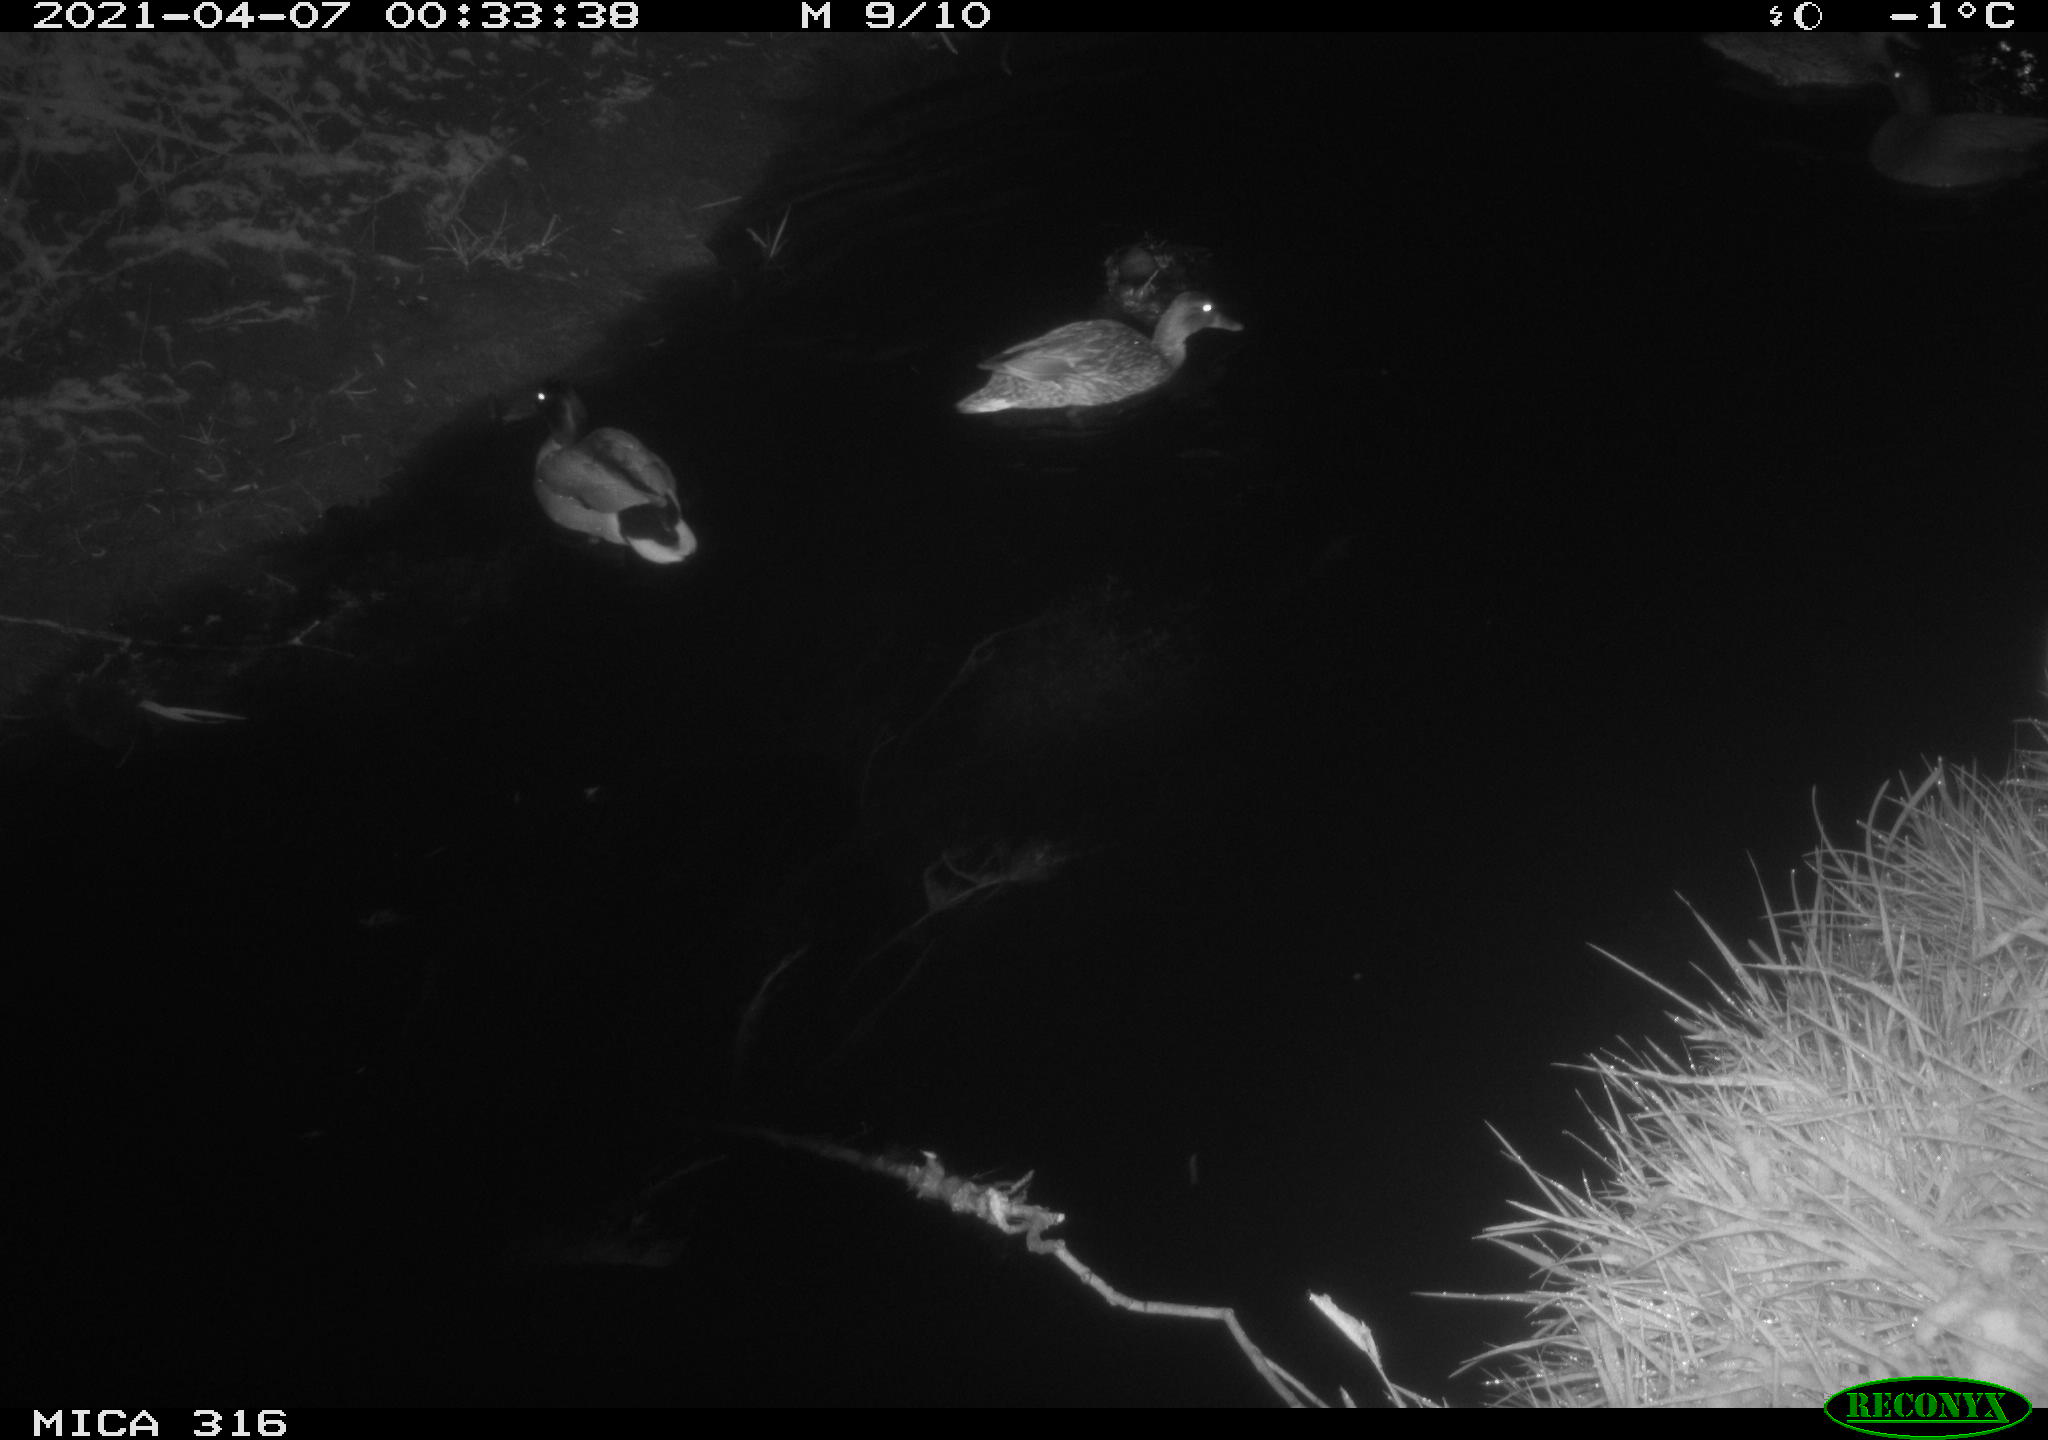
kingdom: Animalia
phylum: Chordata
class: Aves
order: Anseriformes
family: Anatidae
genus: Anas
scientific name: Anas platyrhynchos
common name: Mallard
